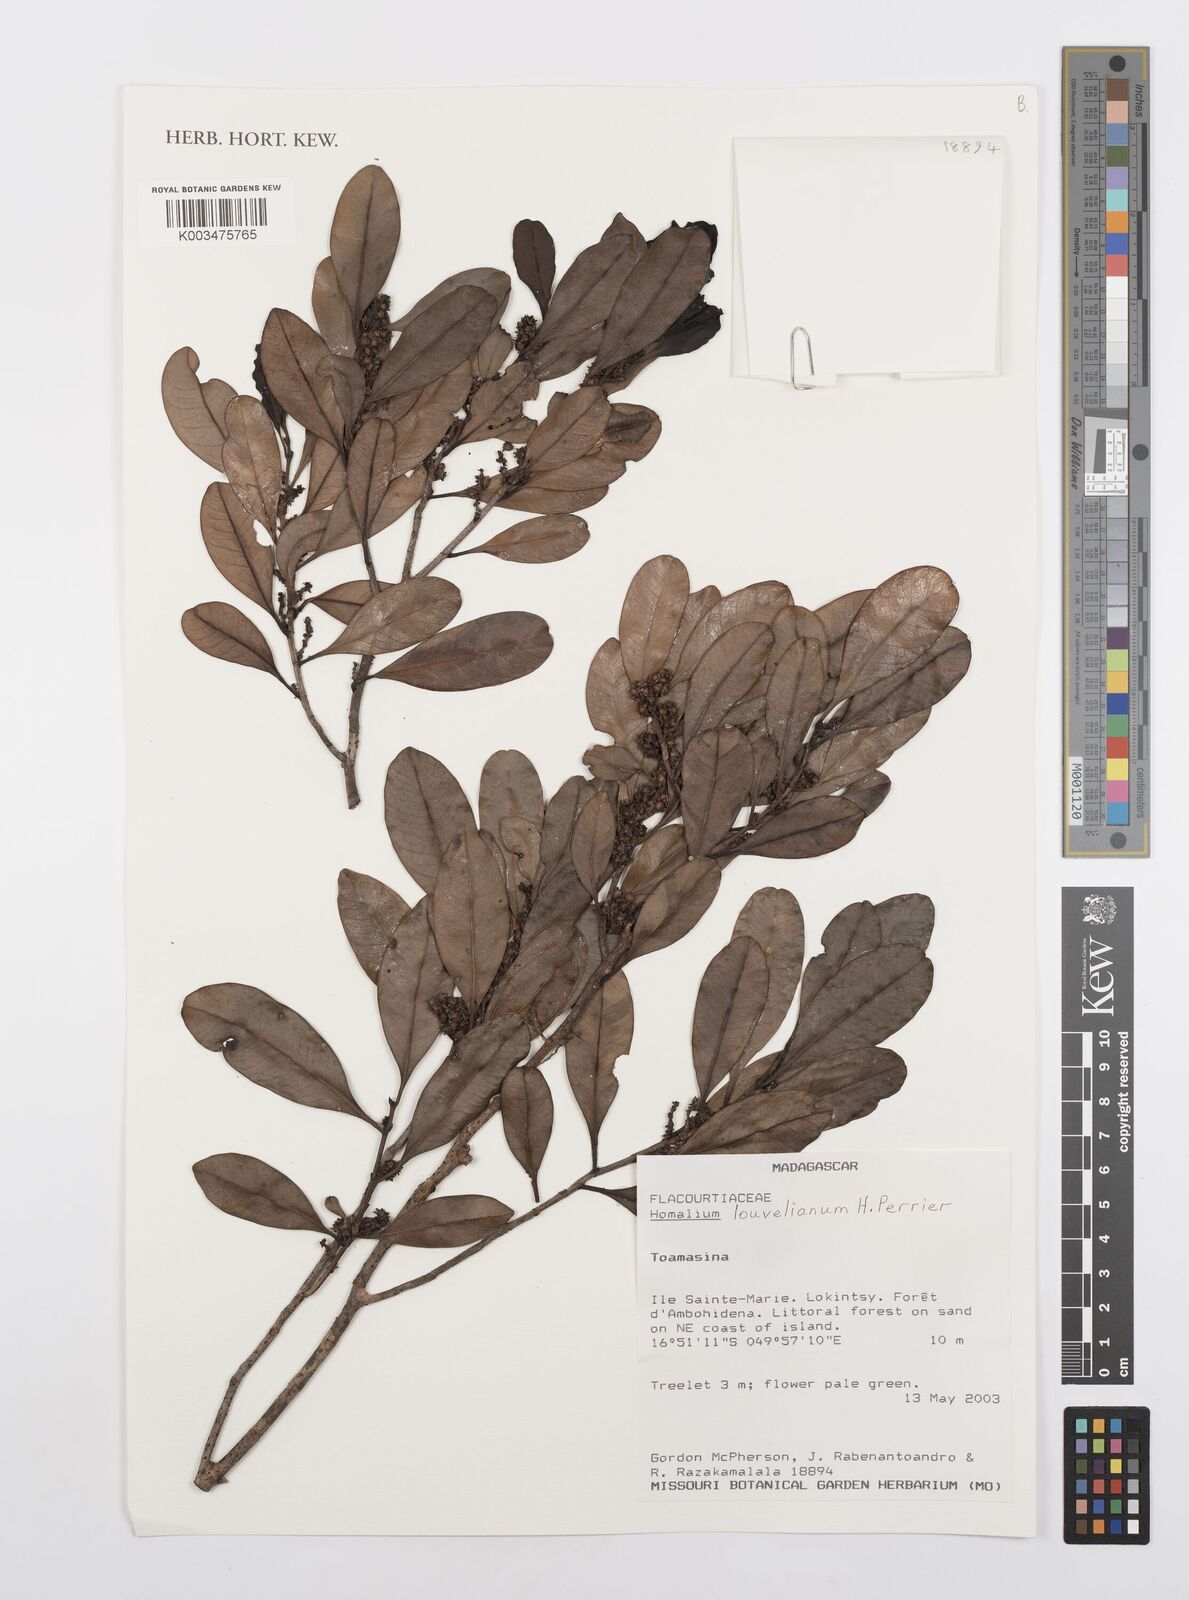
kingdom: Plantae
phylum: Tracheophyta
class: Magnoliopsida
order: Malpighiales
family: Salicaceae
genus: Homalium
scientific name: Homalium louvelianum
